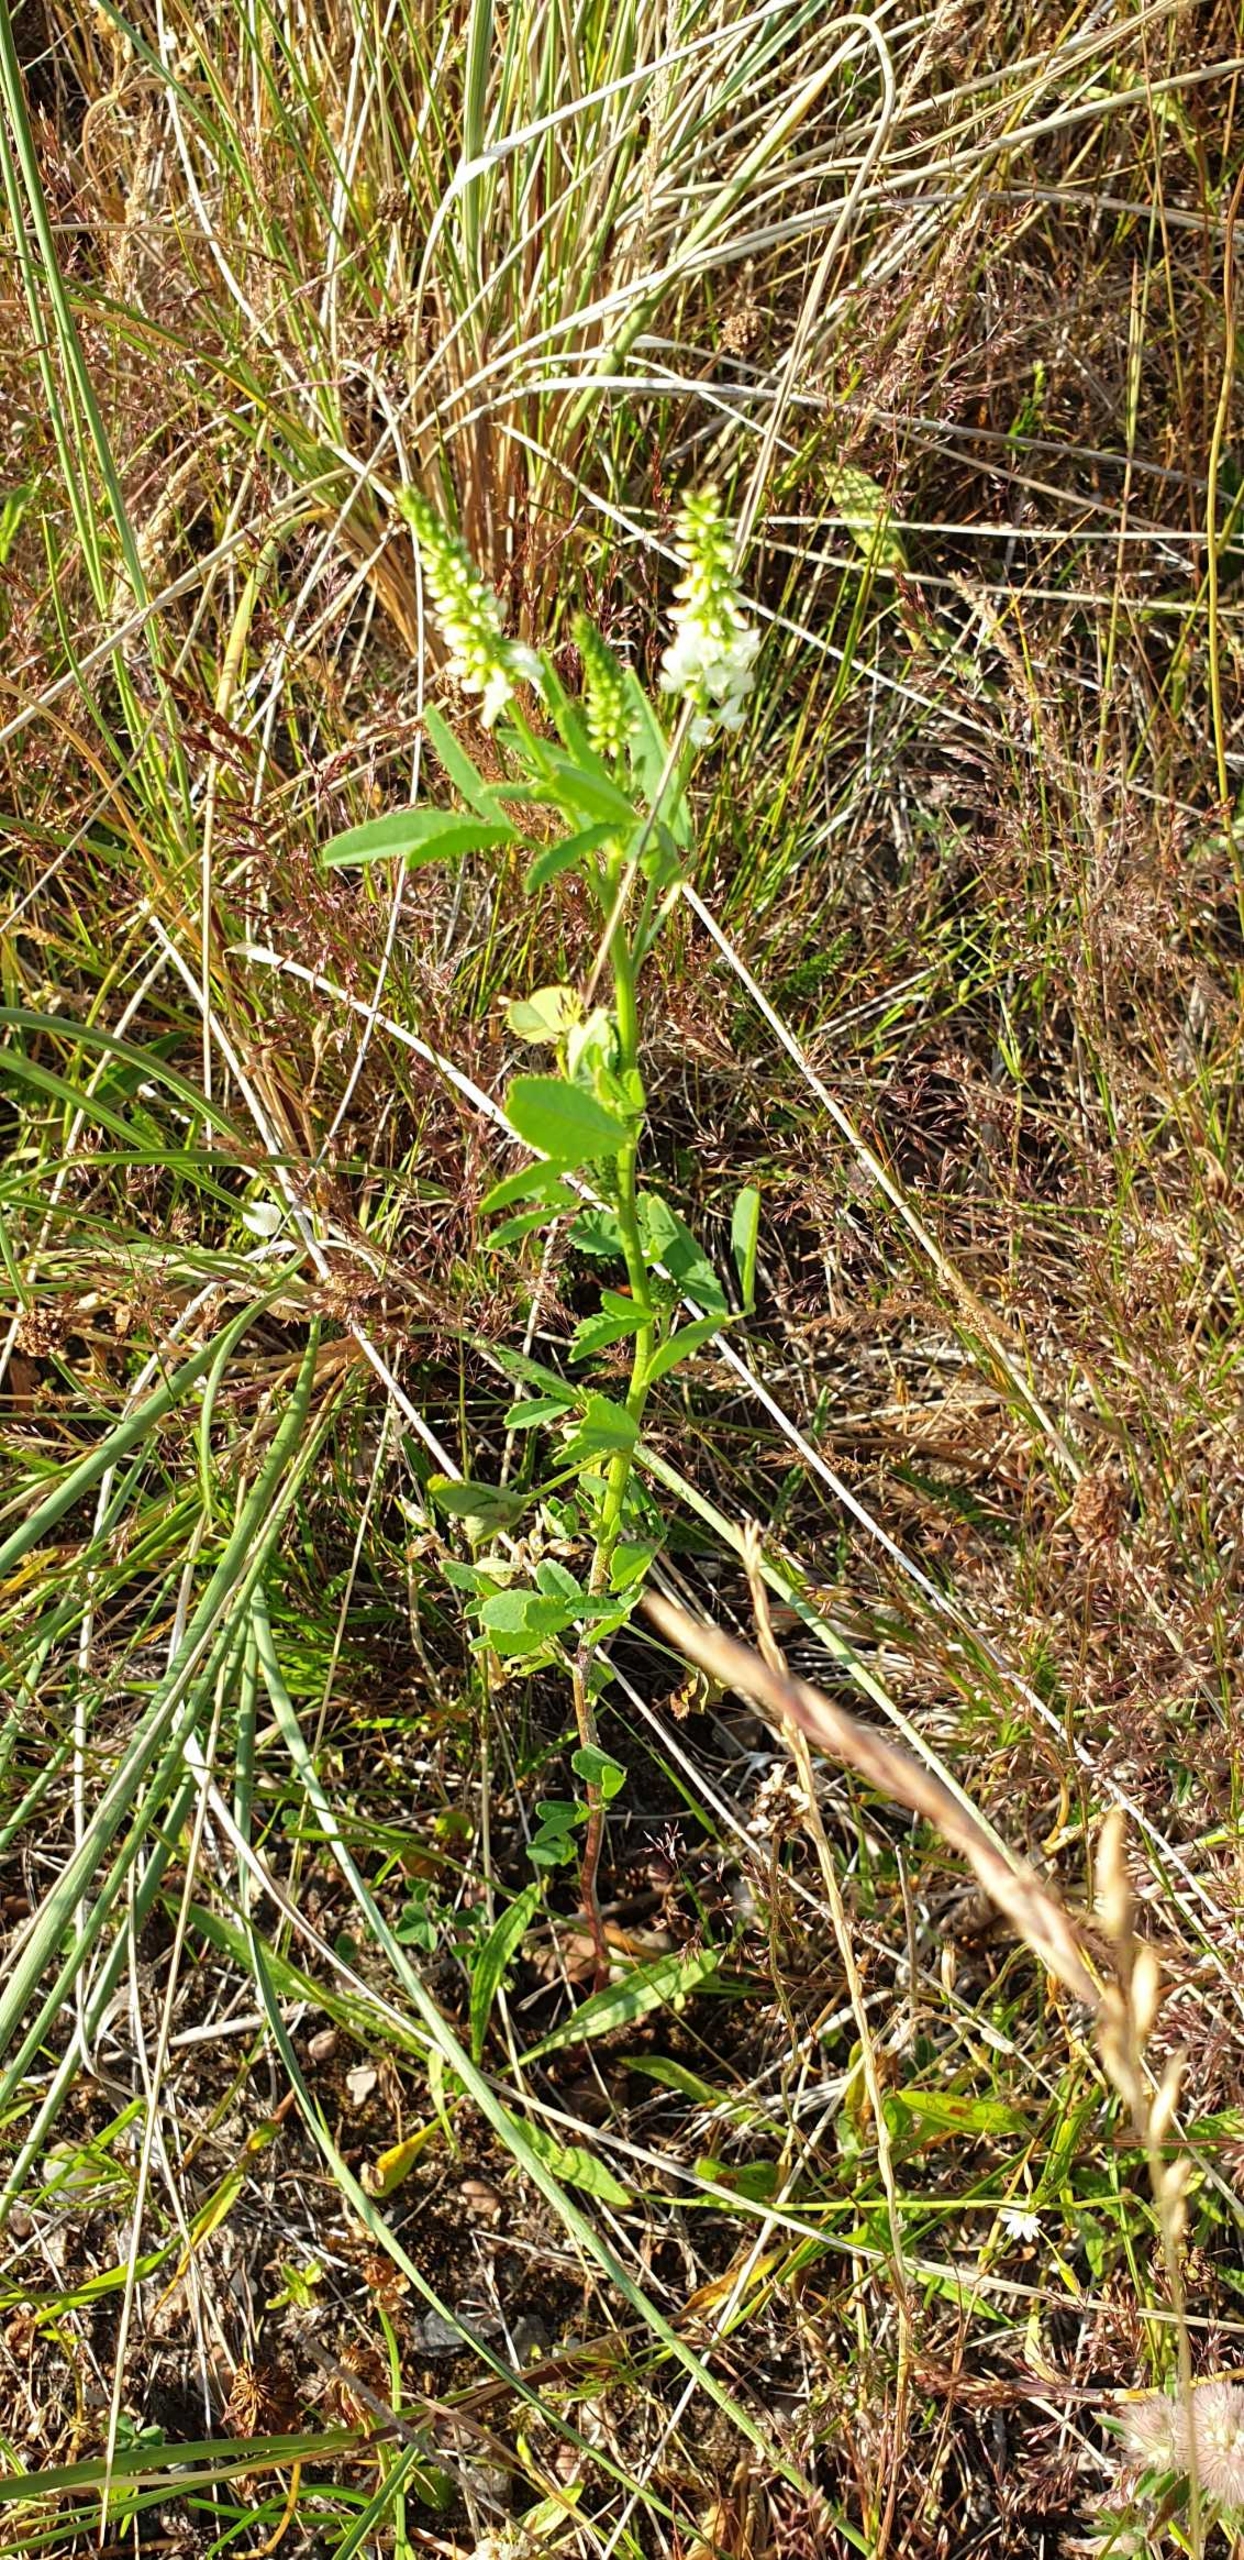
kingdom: Plantae
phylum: Tracheophyta
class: Magnoliopsida
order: Fabales
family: Fabaceae
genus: Melilotus
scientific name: Melilotus albus
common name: Hvid stenkløver
